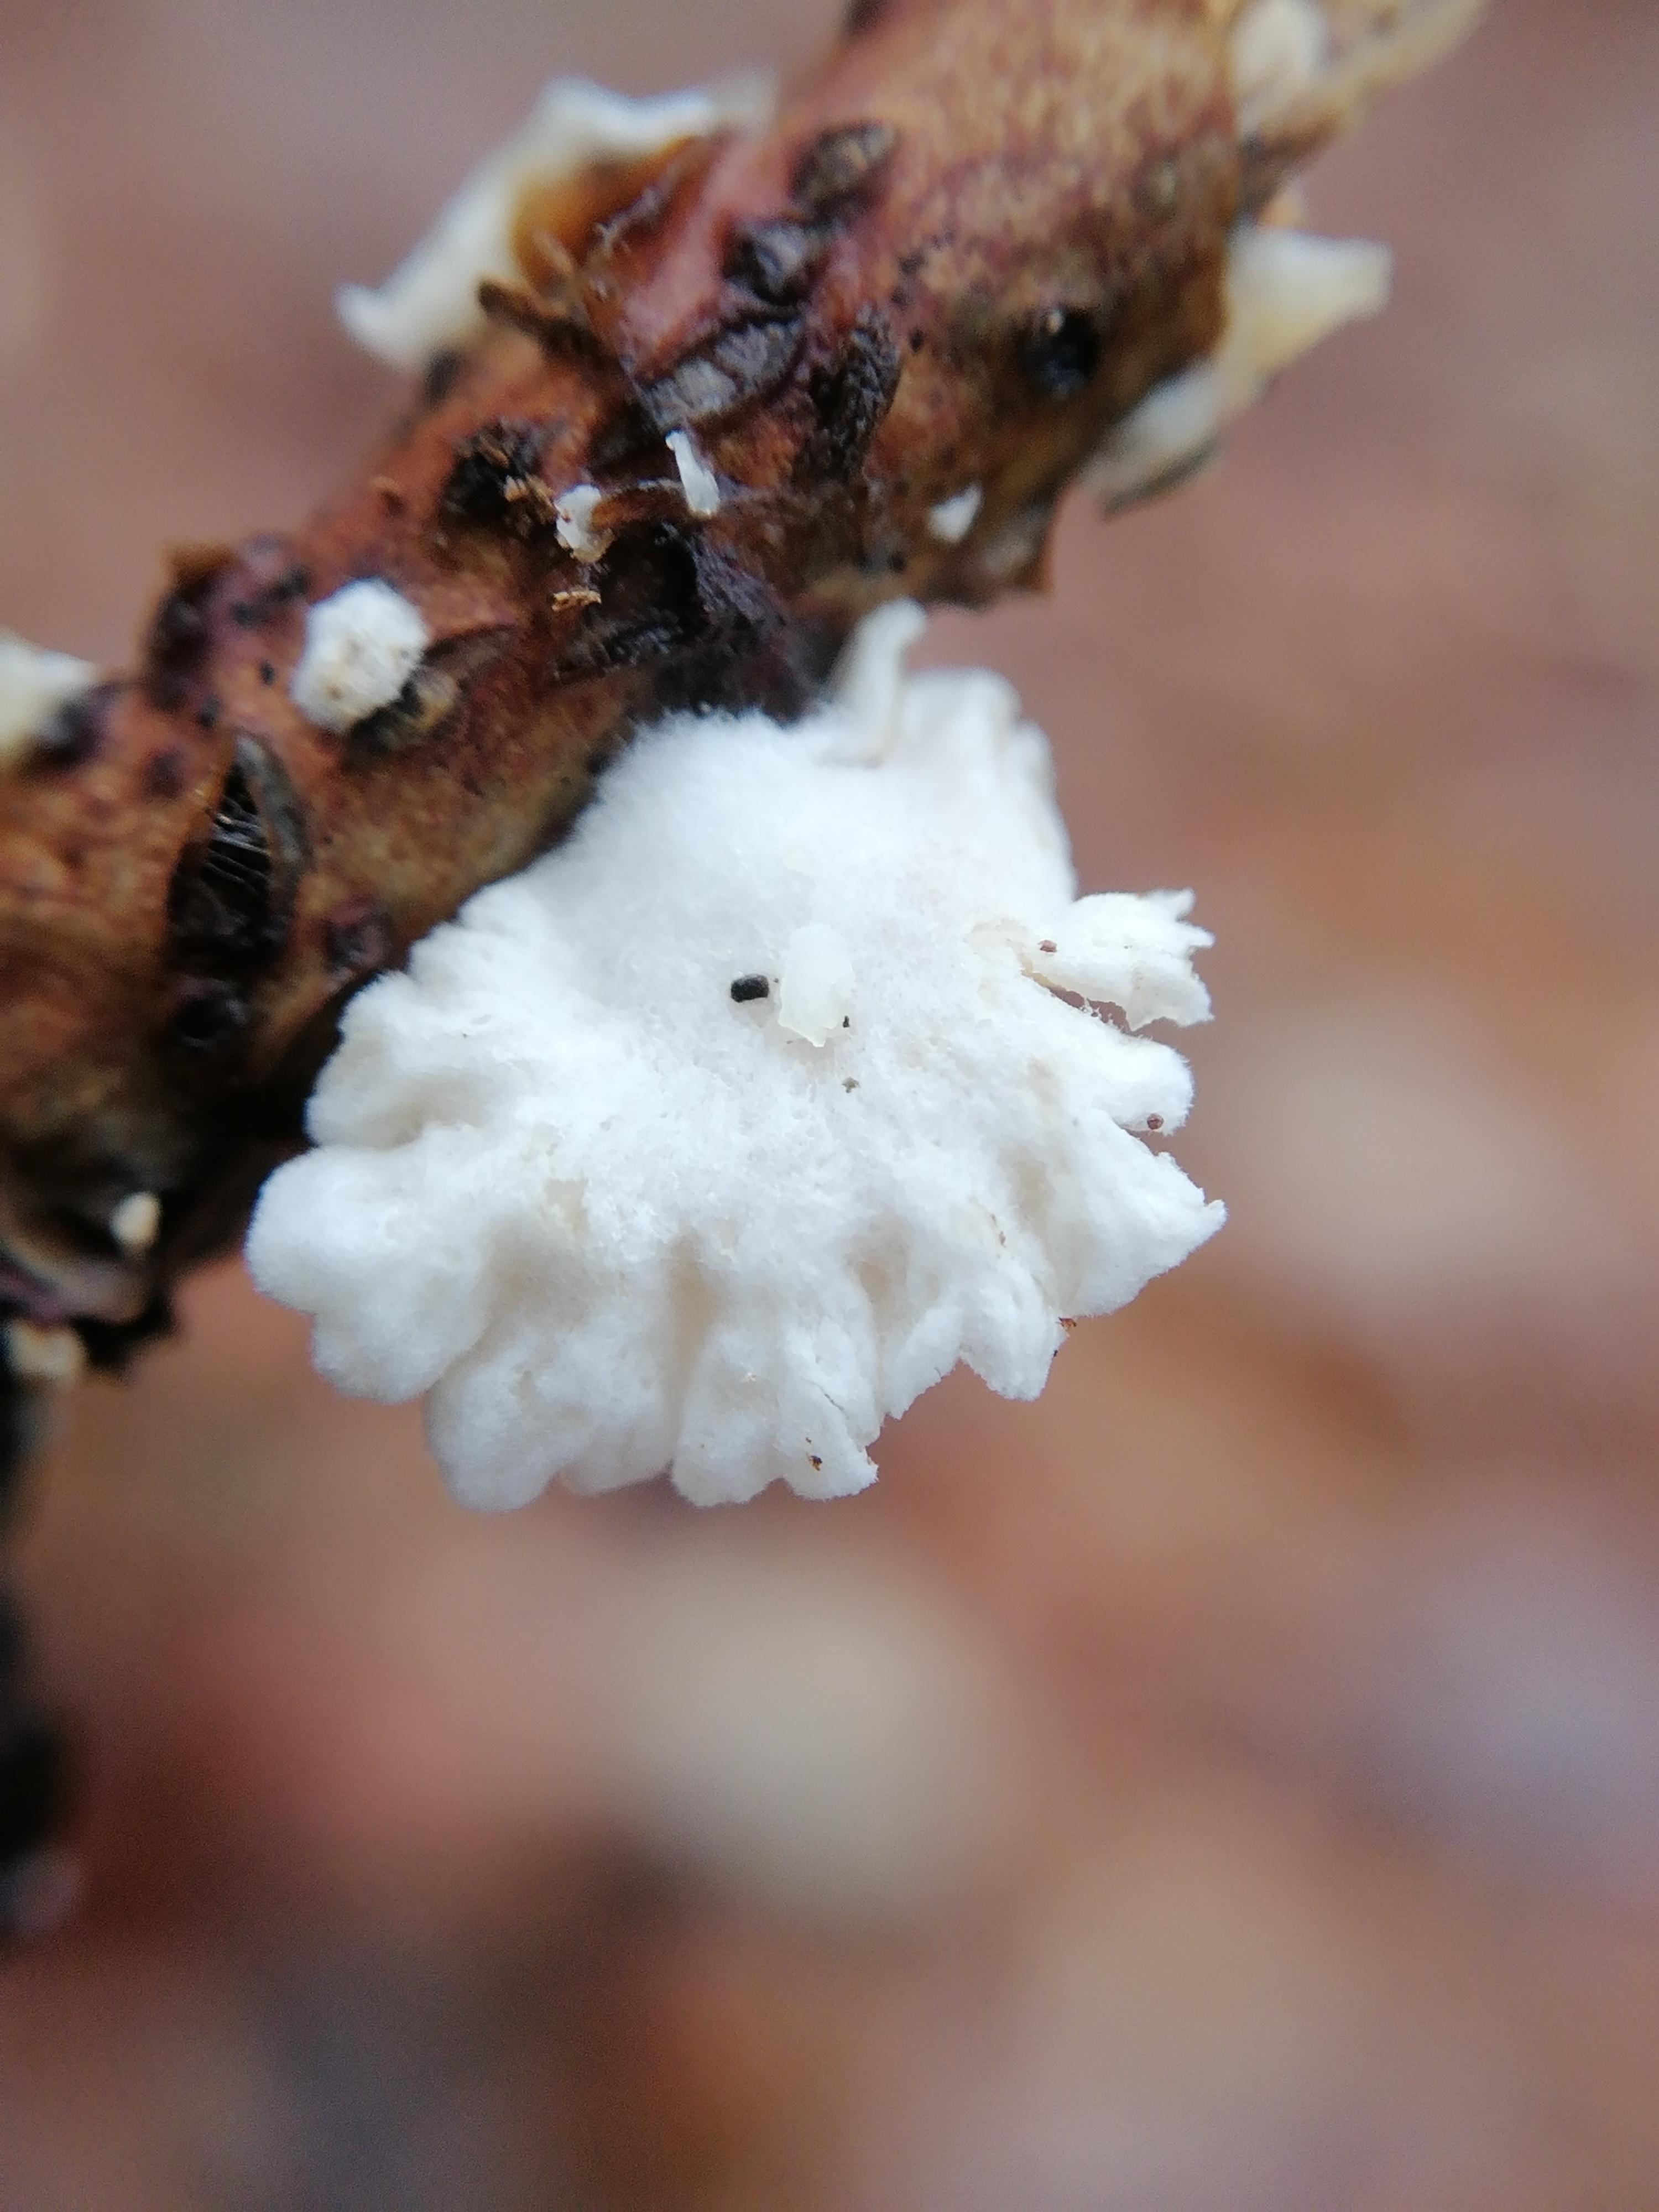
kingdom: Fungi
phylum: Basidiomycota
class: Agaricomycetes
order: Agaricales
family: Crepidotaceae
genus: Crepidotus
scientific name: Crepidotus
